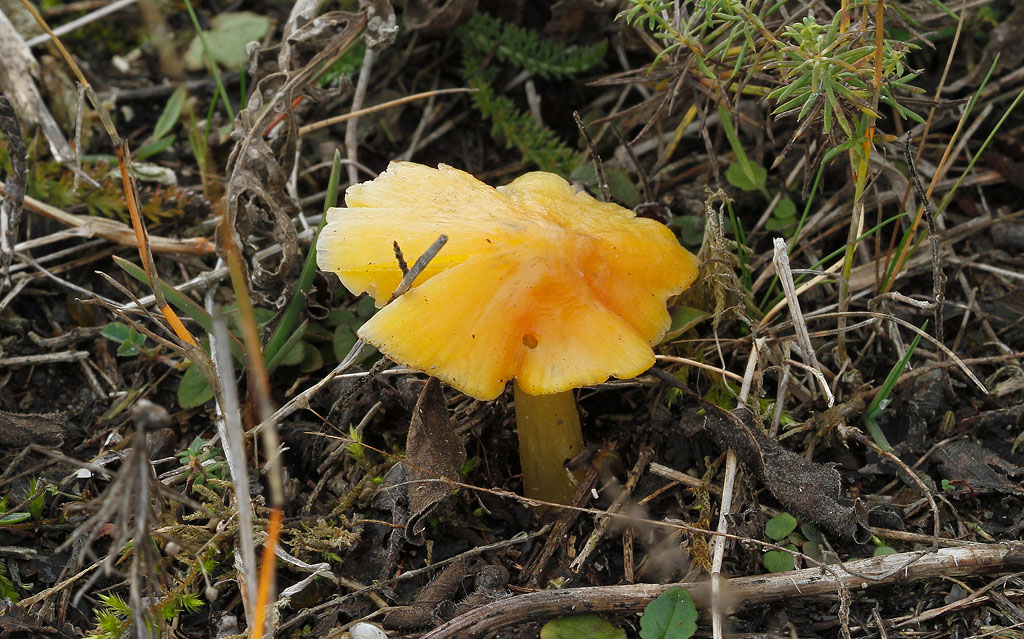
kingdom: Fungi
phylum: Basidiomycota
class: Agaricomycetes
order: Agaricales
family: Hygrophoraceae
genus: Hygrocybe
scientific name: Hygrocybe acutoconica
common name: Konrads vokshat
